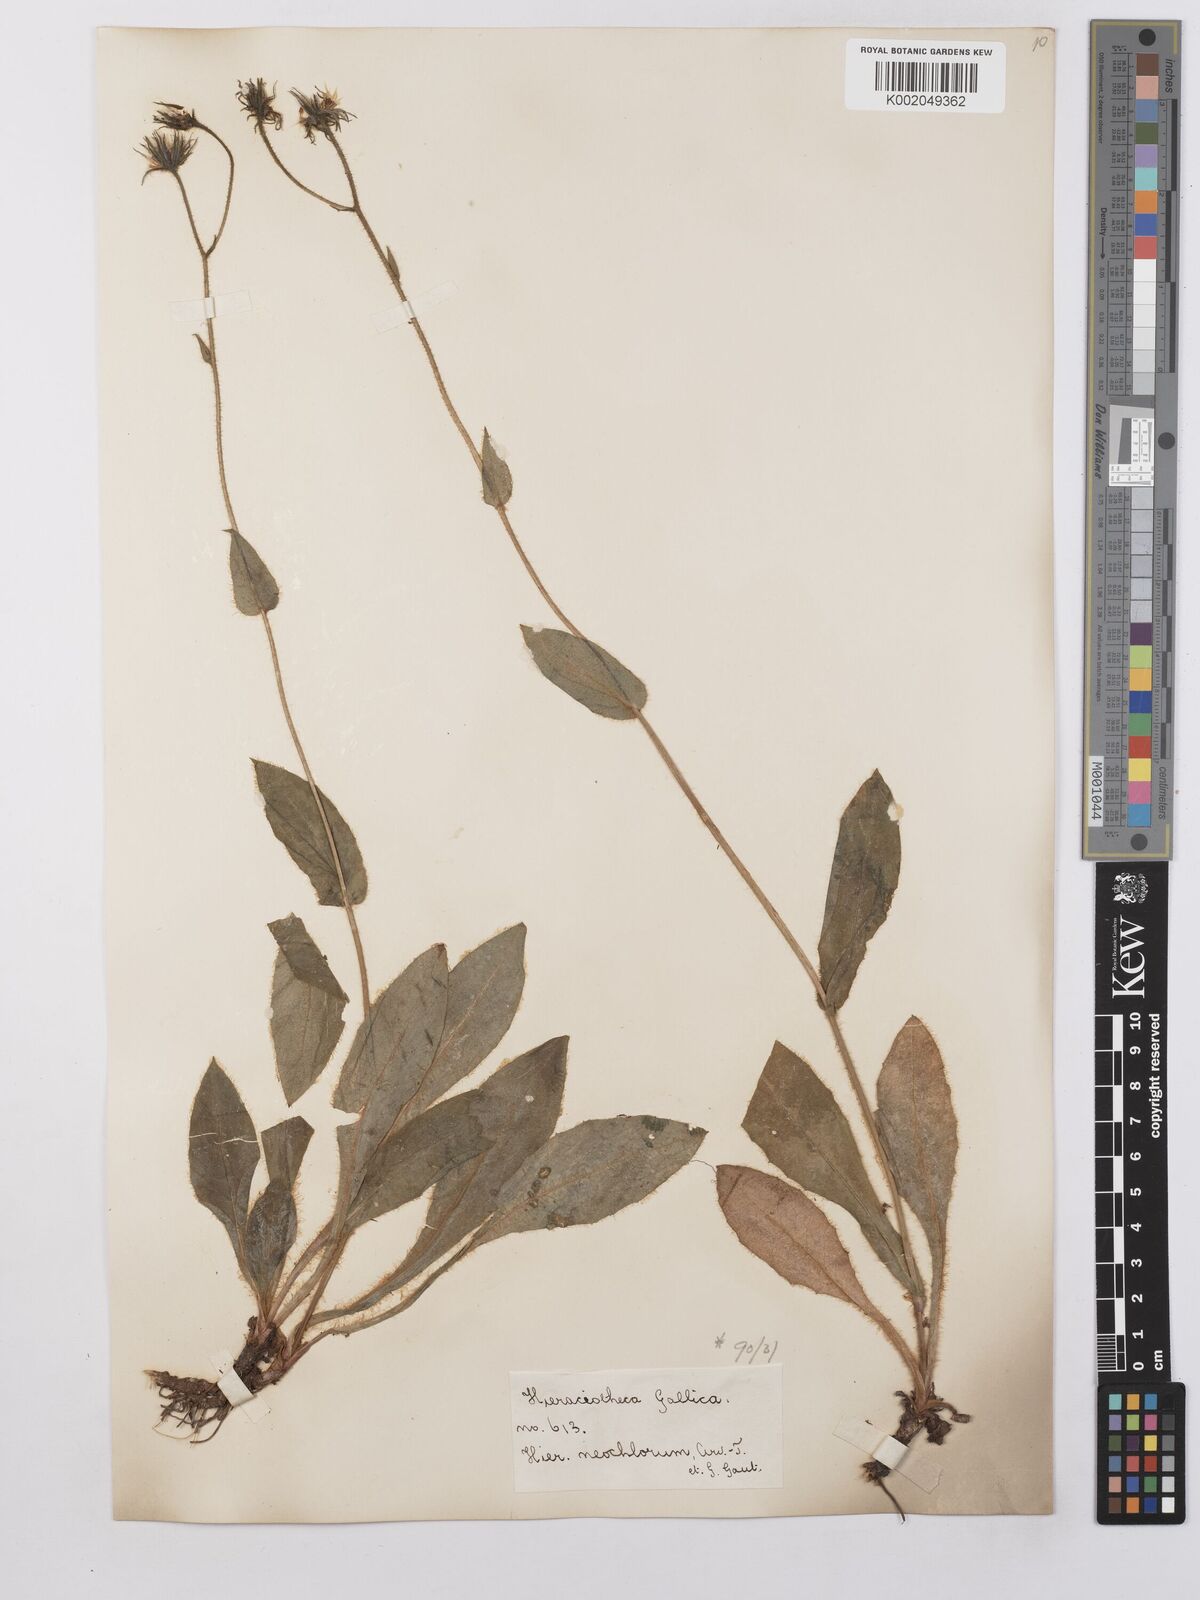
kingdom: Plantae
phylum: Tracheophyta
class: Magnoliopsida
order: Asterales
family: Asteraceae
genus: Hieracium
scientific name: Hieracium cerinthoides
